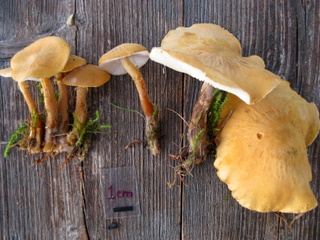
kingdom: Fungi
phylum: Basidiomycota
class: Agaricomycetes
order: Agaricales
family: Tricholomataceae
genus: Cystoderma
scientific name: Cystoderma amianthinum
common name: okkergul grynhat
